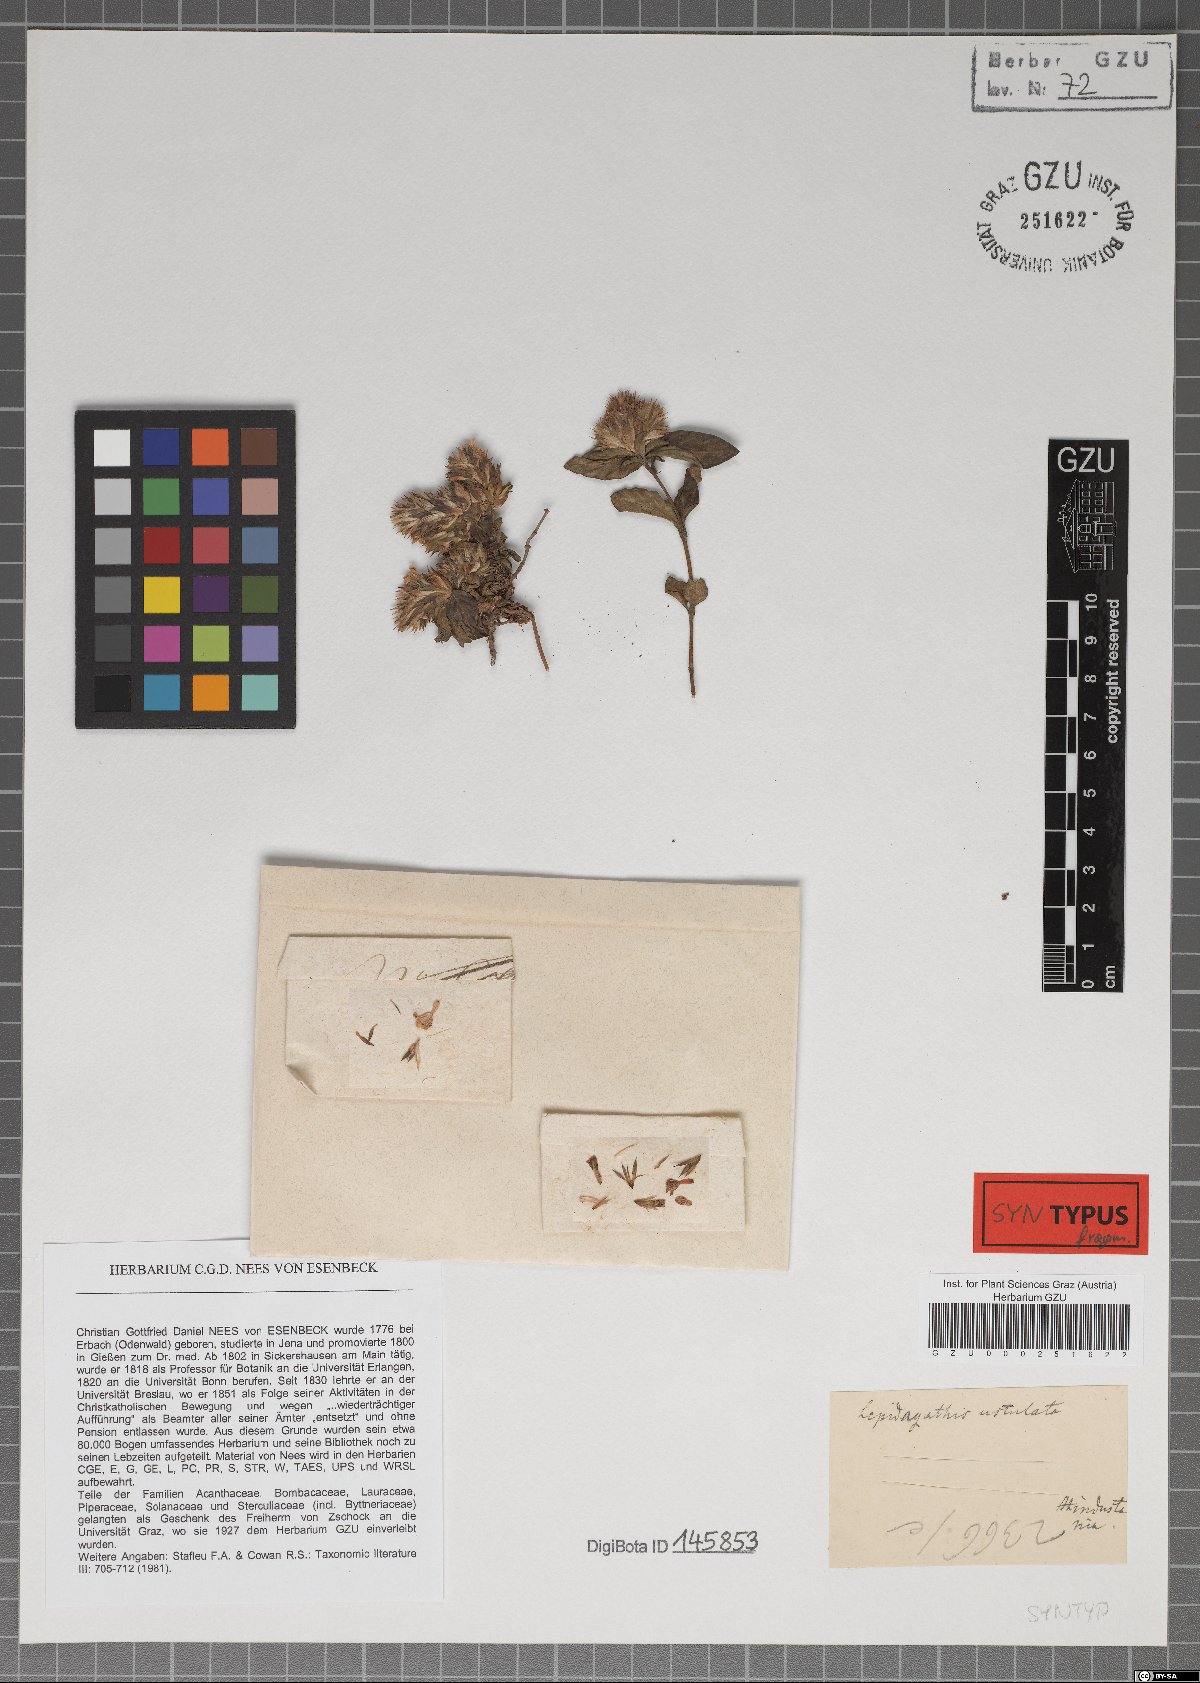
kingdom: Plantae
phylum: Tracheophyta
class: Magnoliopsida
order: Lamiales
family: Acanthaceae
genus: Lepidagathis
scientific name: Lepidagathis incurva
